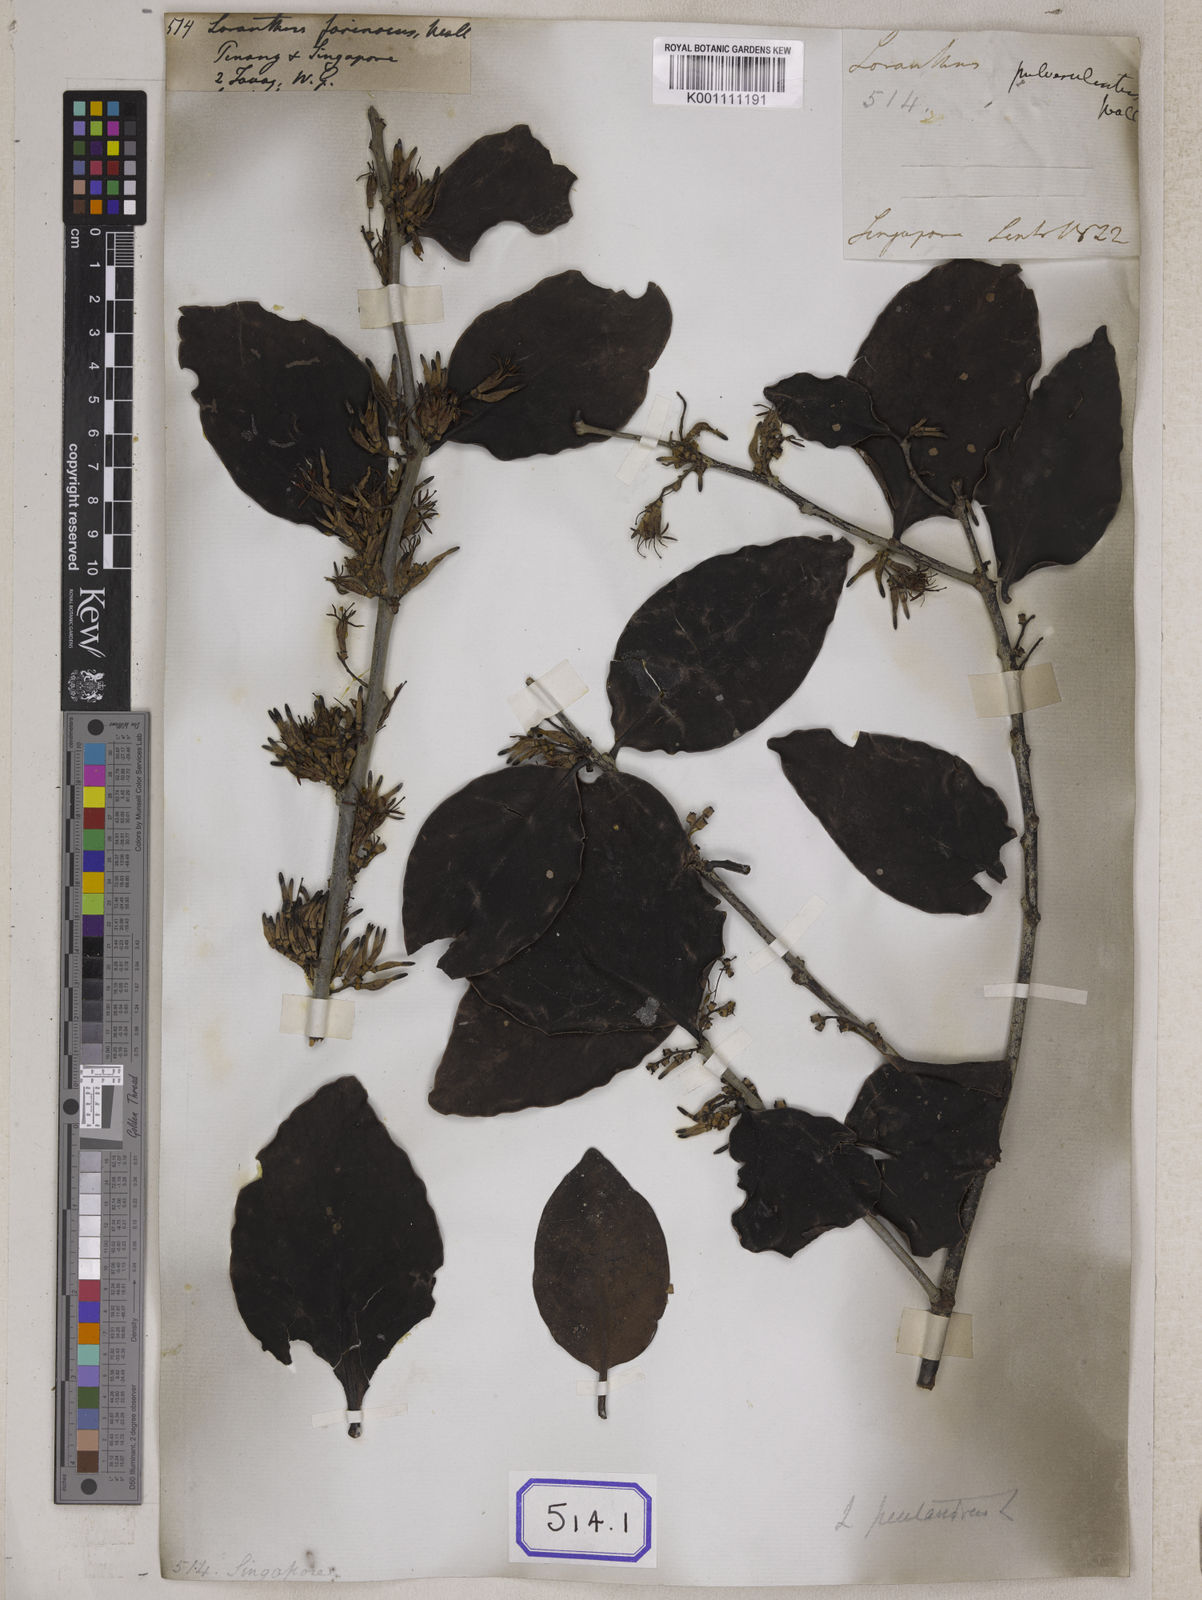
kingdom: Plantae
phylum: Tracheophyta
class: Magnoliopsida
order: Santalales
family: Loranthaceae
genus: Loranthus
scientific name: Loranthus
